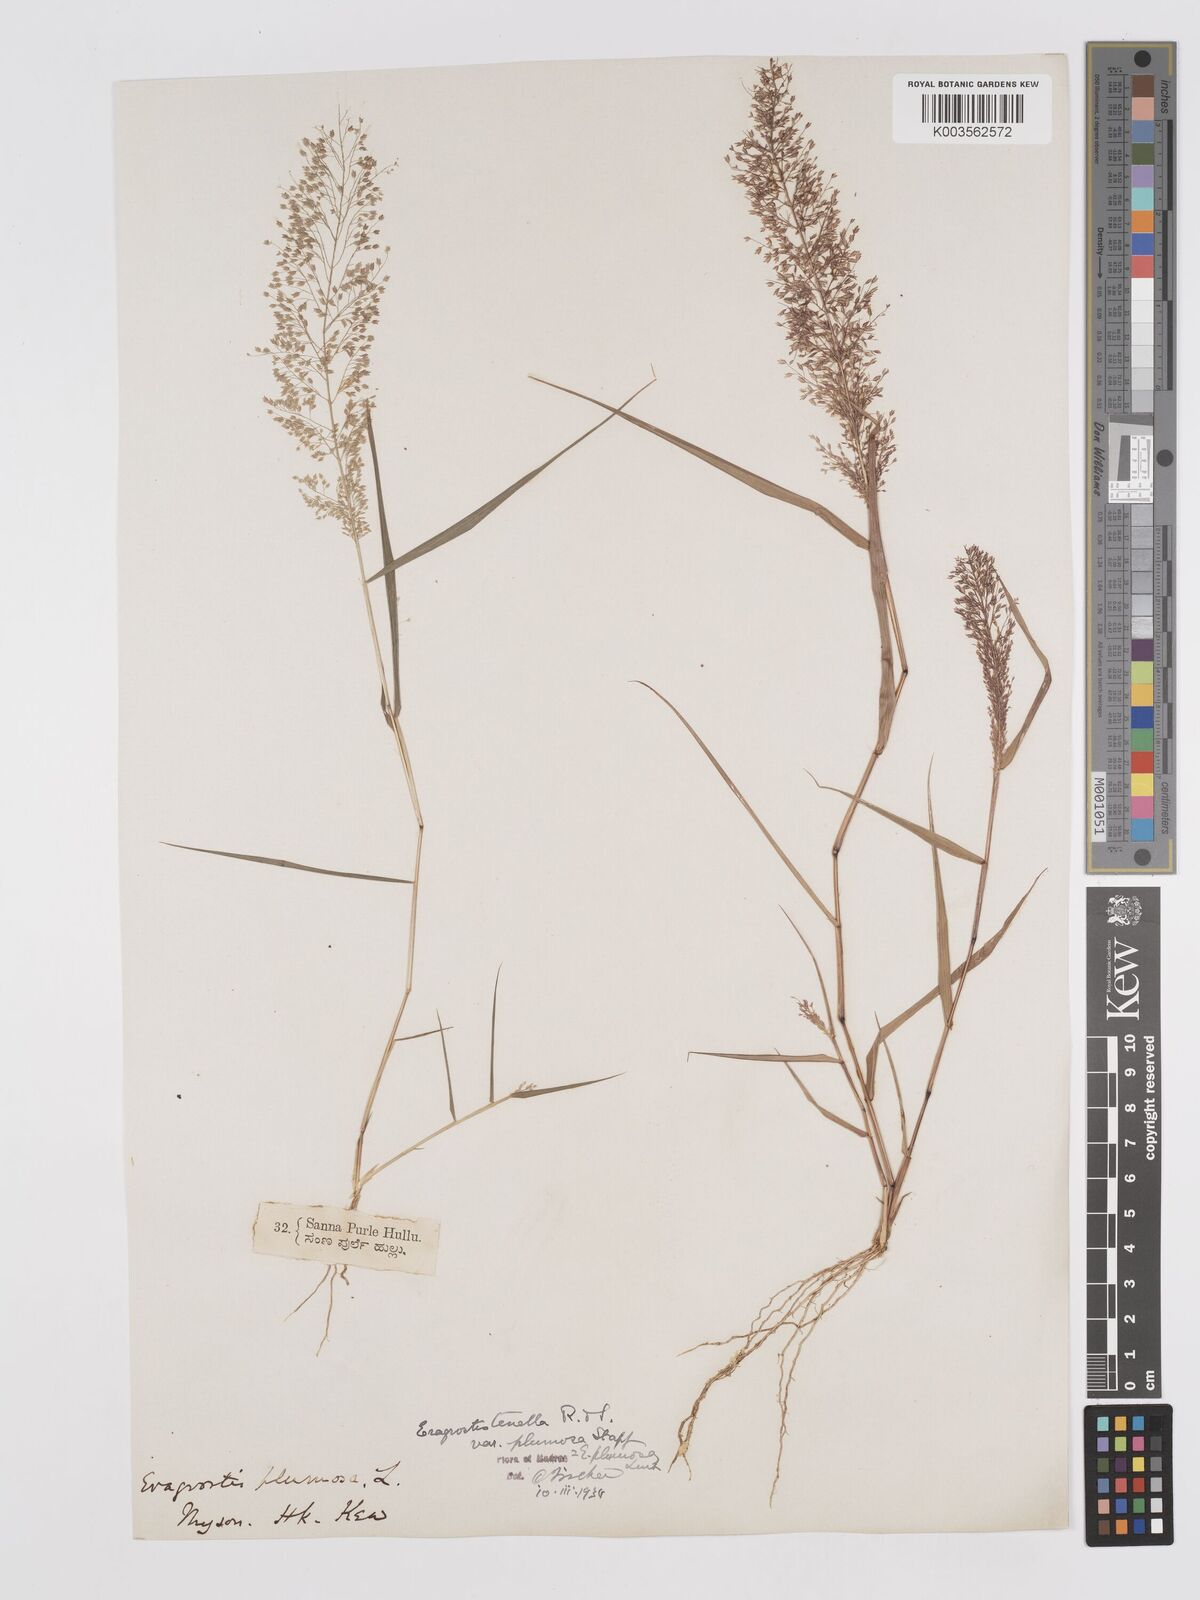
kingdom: Plantae
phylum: Tracheophyta
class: Liliopsida
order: Poales
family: Poaceae
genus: Eragrostis
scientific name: Eragrostis tenella
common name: Japanese lovegrass
